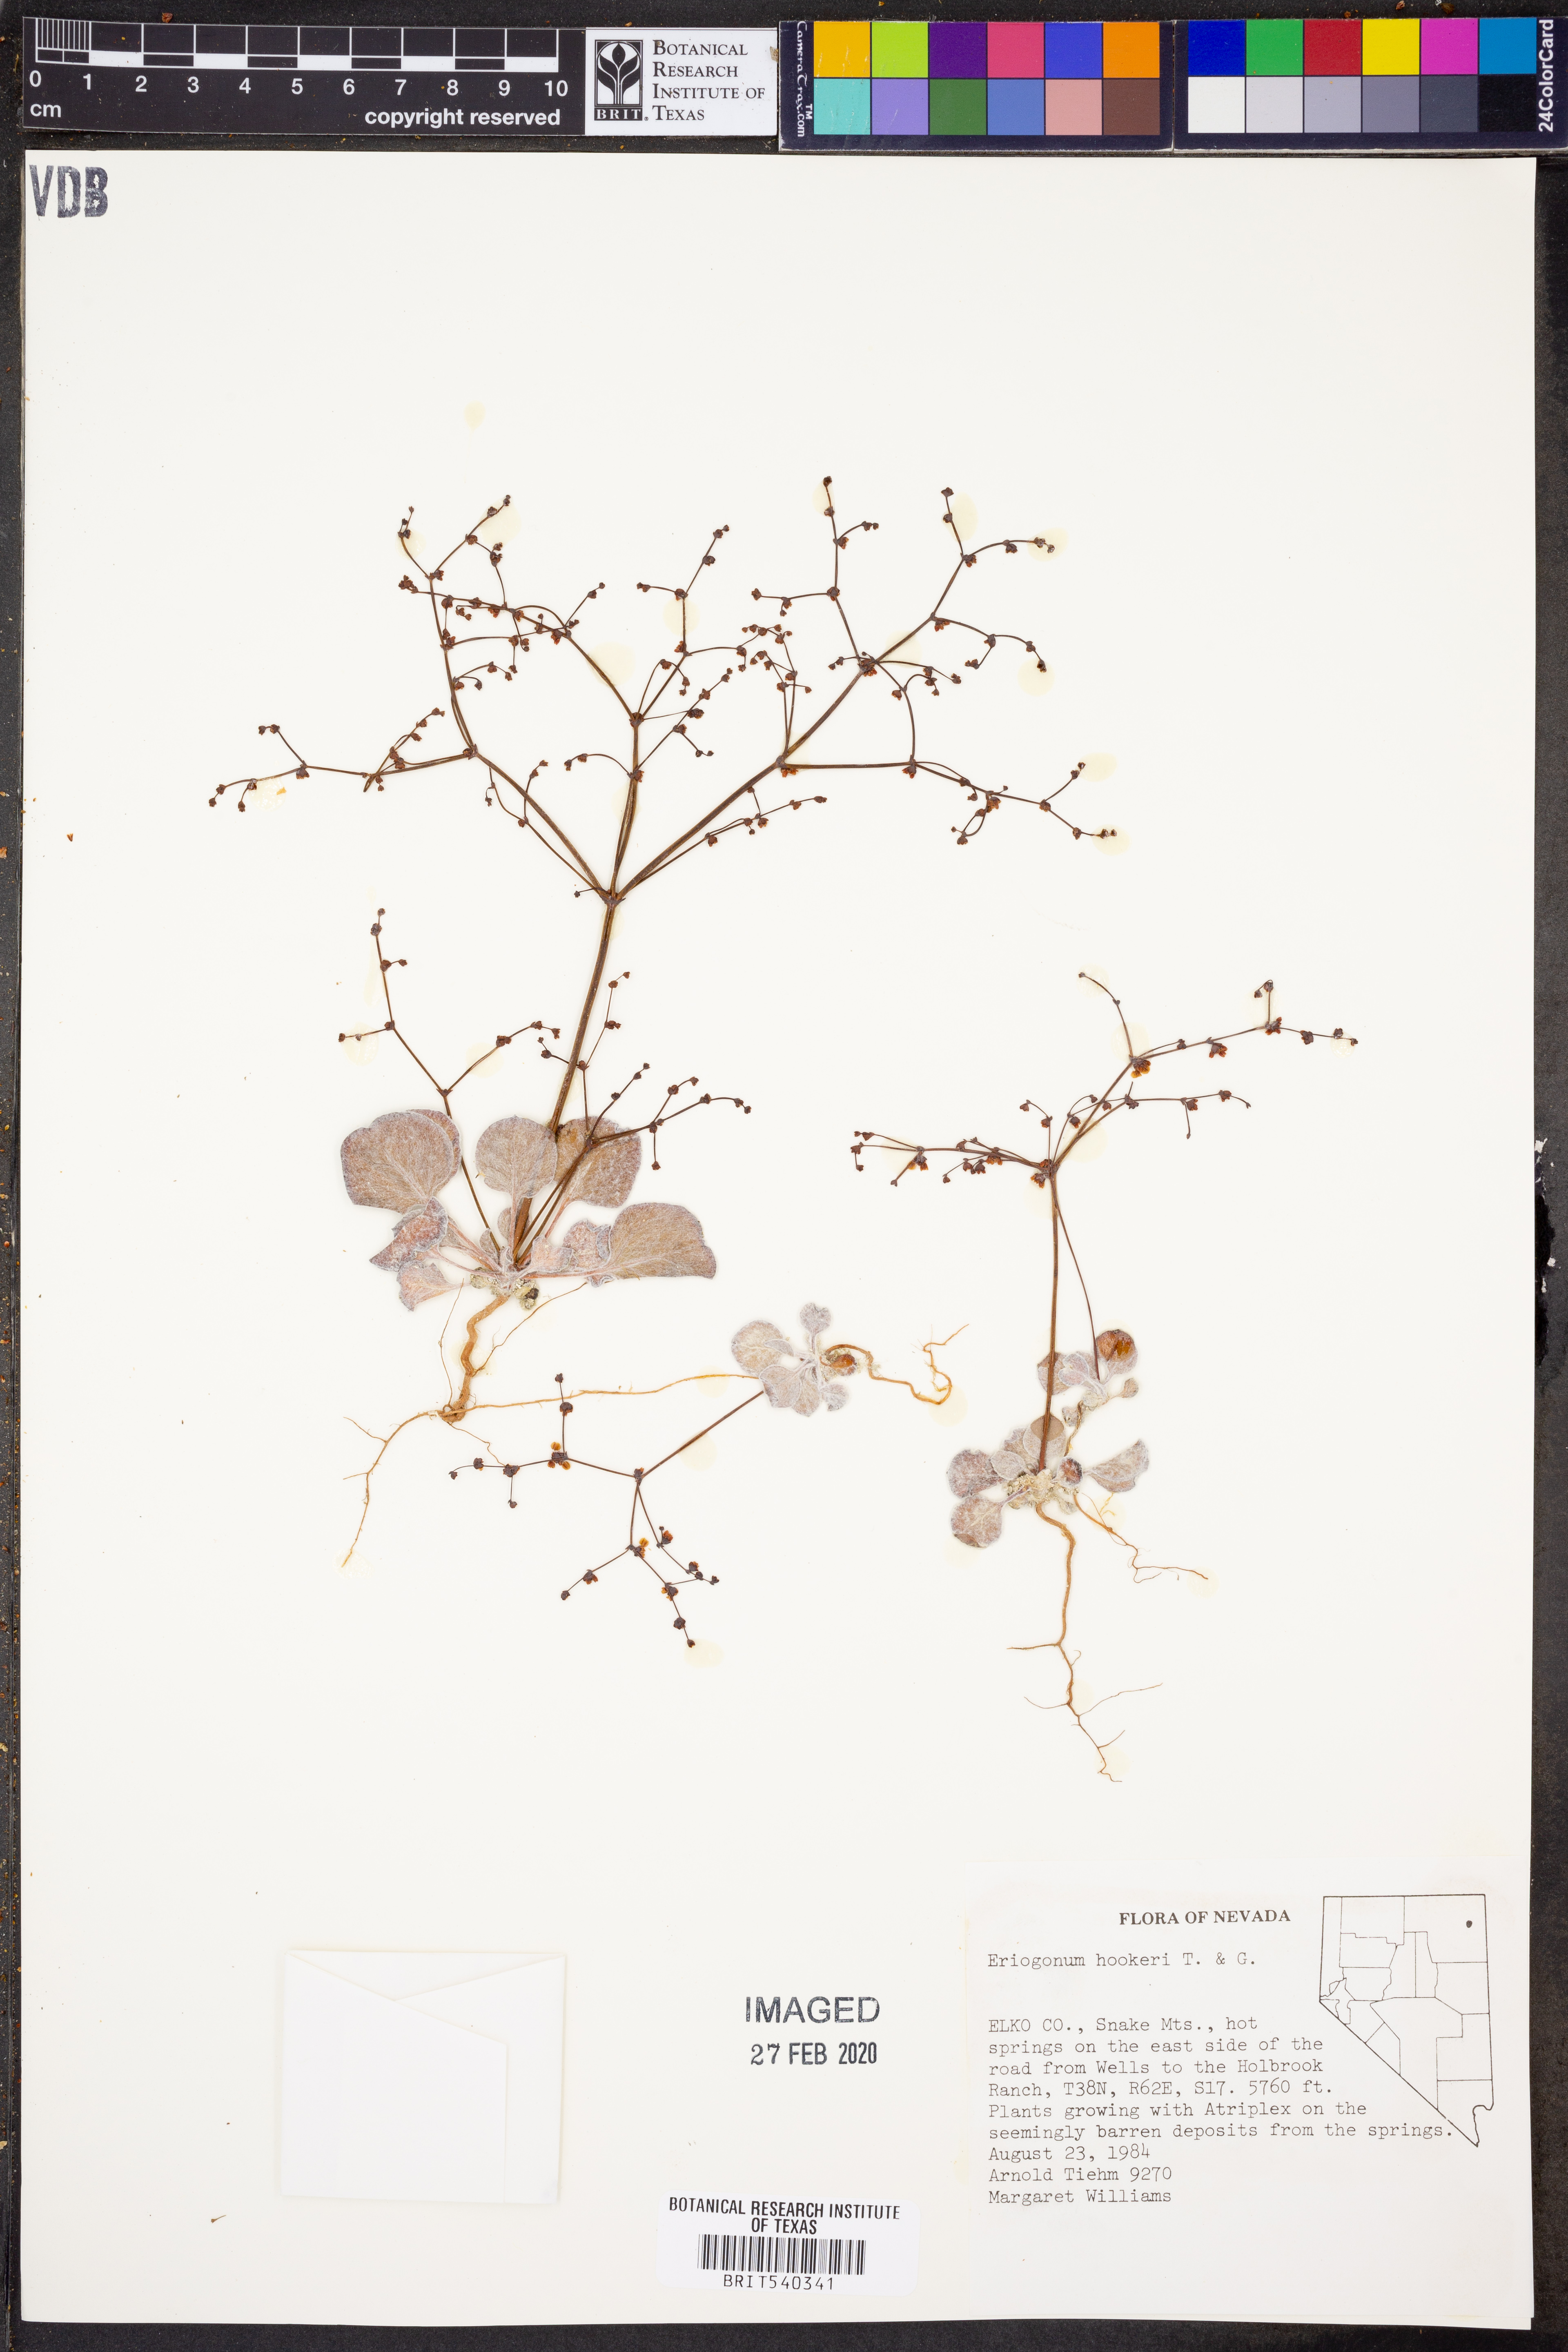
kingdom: Plantae
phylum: Tracheophyta
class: Magnoliopsida
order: Caryophyllales
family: Polygonaceae
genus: Eriogonum
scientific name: Eriogonum hookeri
